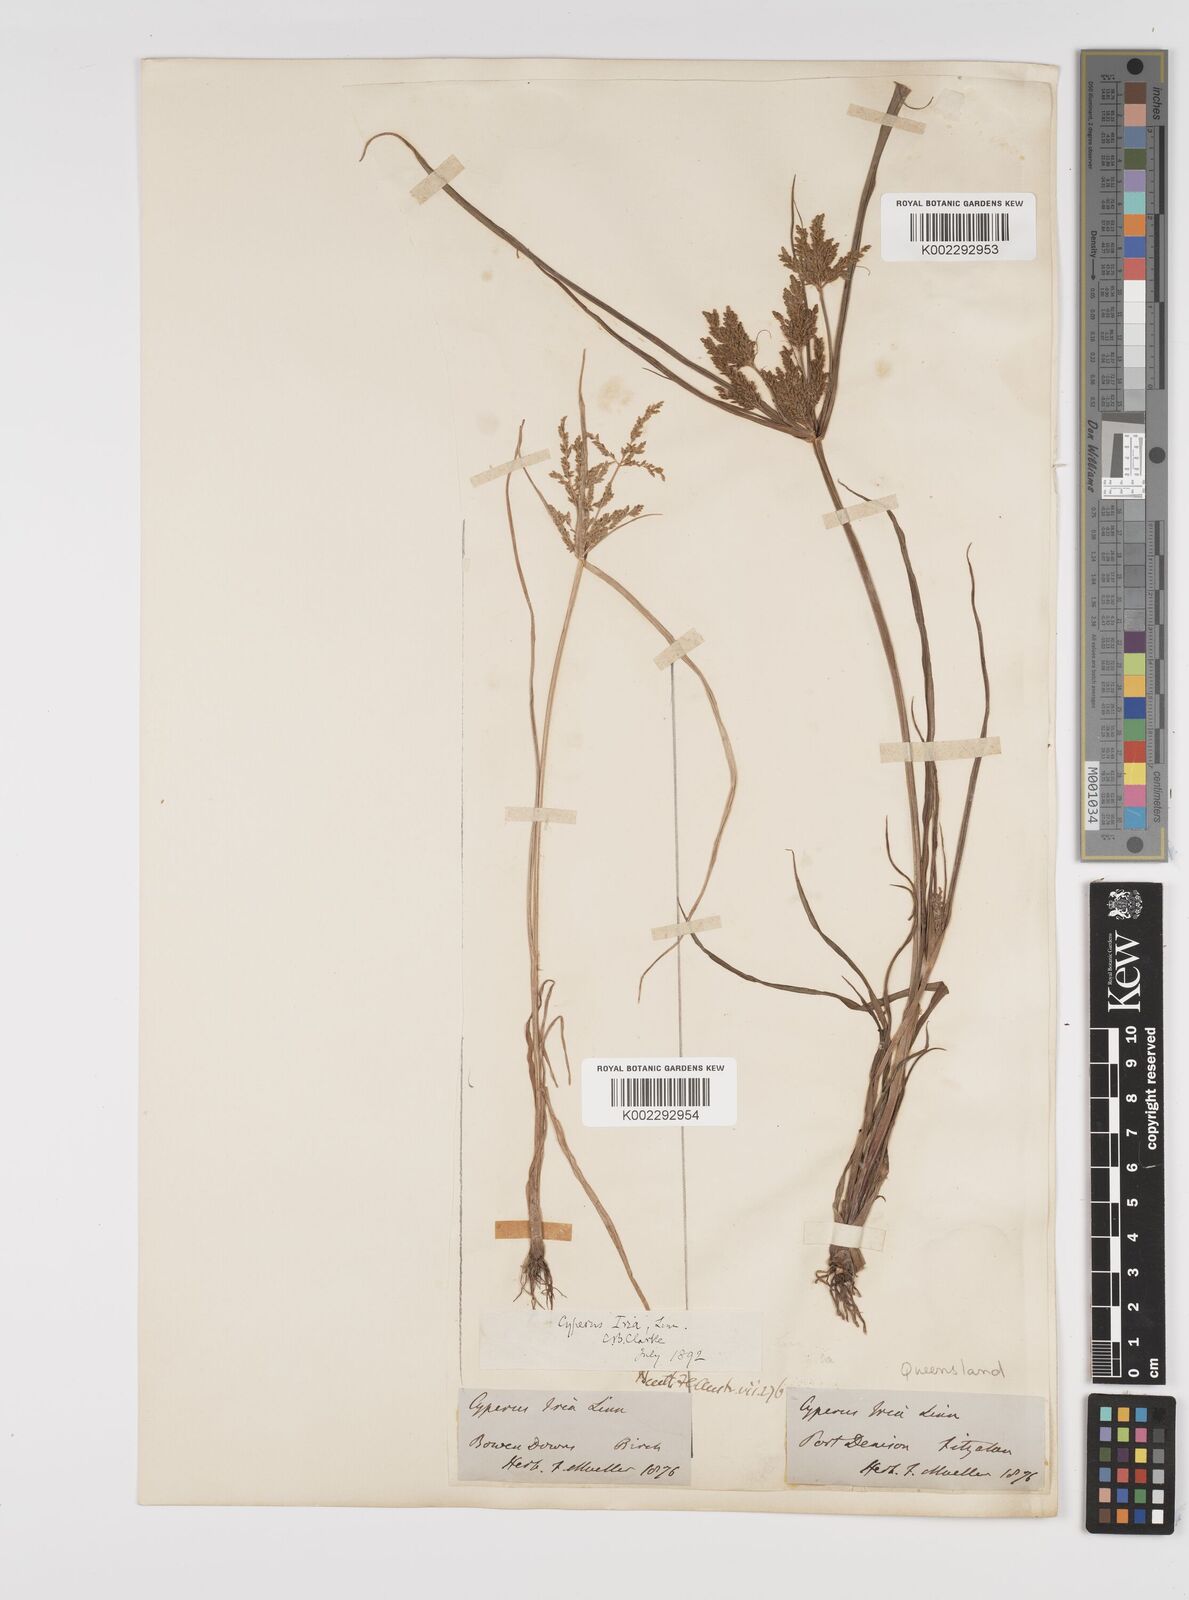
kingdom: Plantae
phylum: Tracheophyta
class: Liliopsida
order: Poales
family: Cyperaceae
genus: Cyperus
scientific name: Cyperus iria
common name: Ricefield flatsedge
